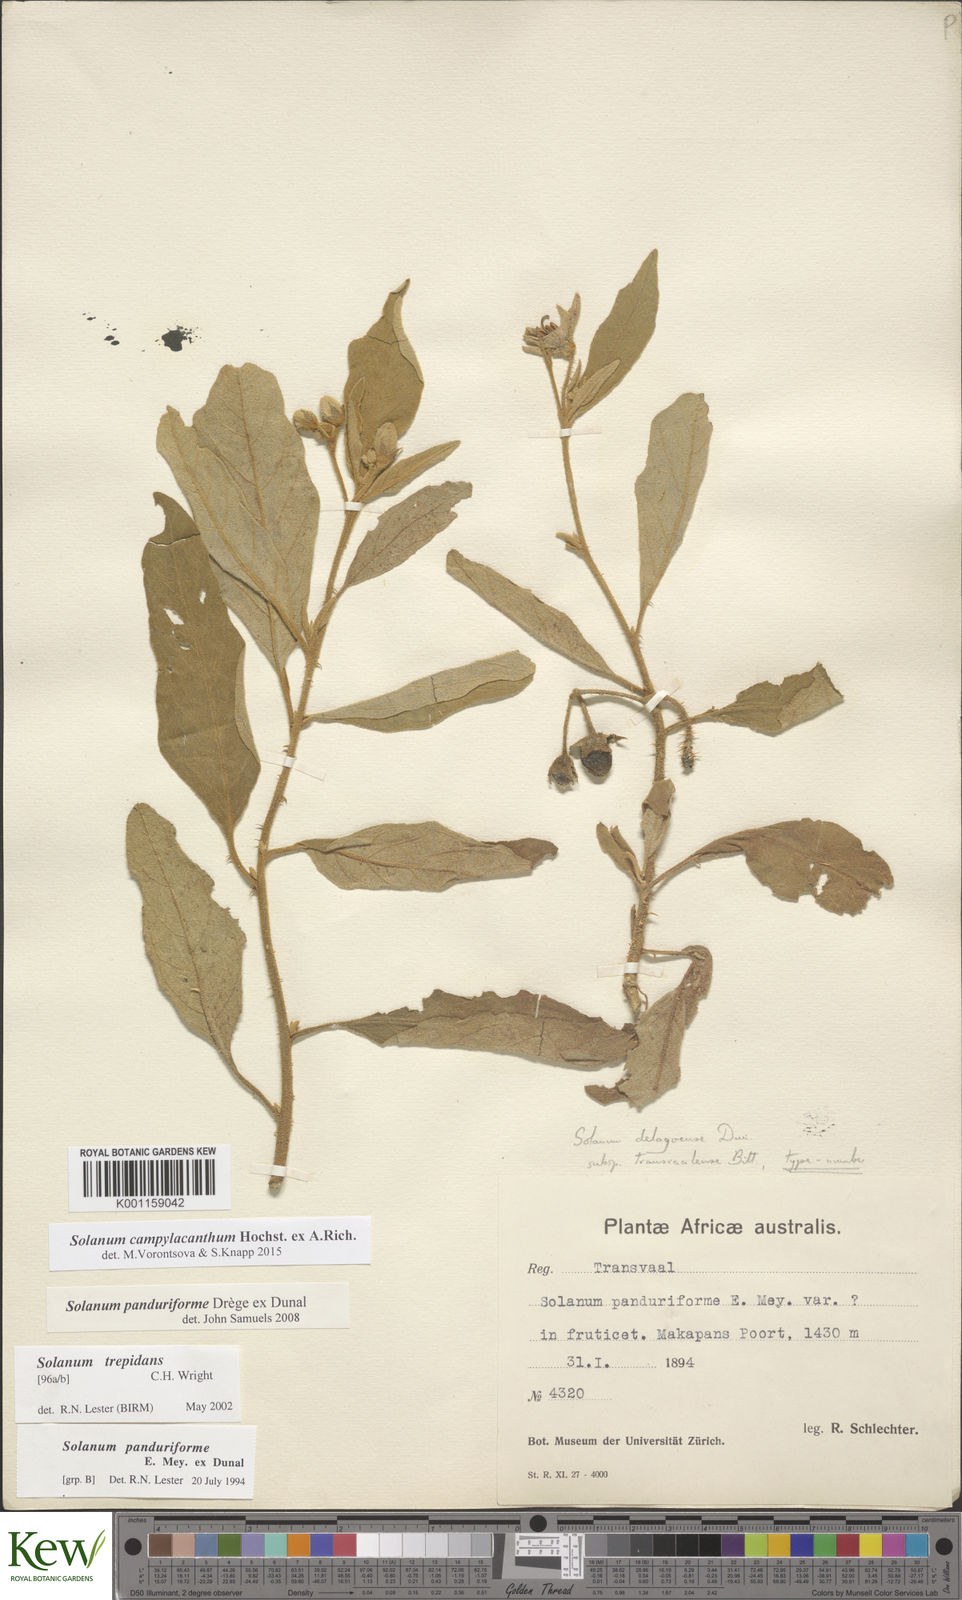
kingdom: Plantae
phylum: Tracheophyta
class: Magnoliopsida
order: Solanales
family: Solanaceae
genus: Solanum
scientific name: Solanum campylacanthum
